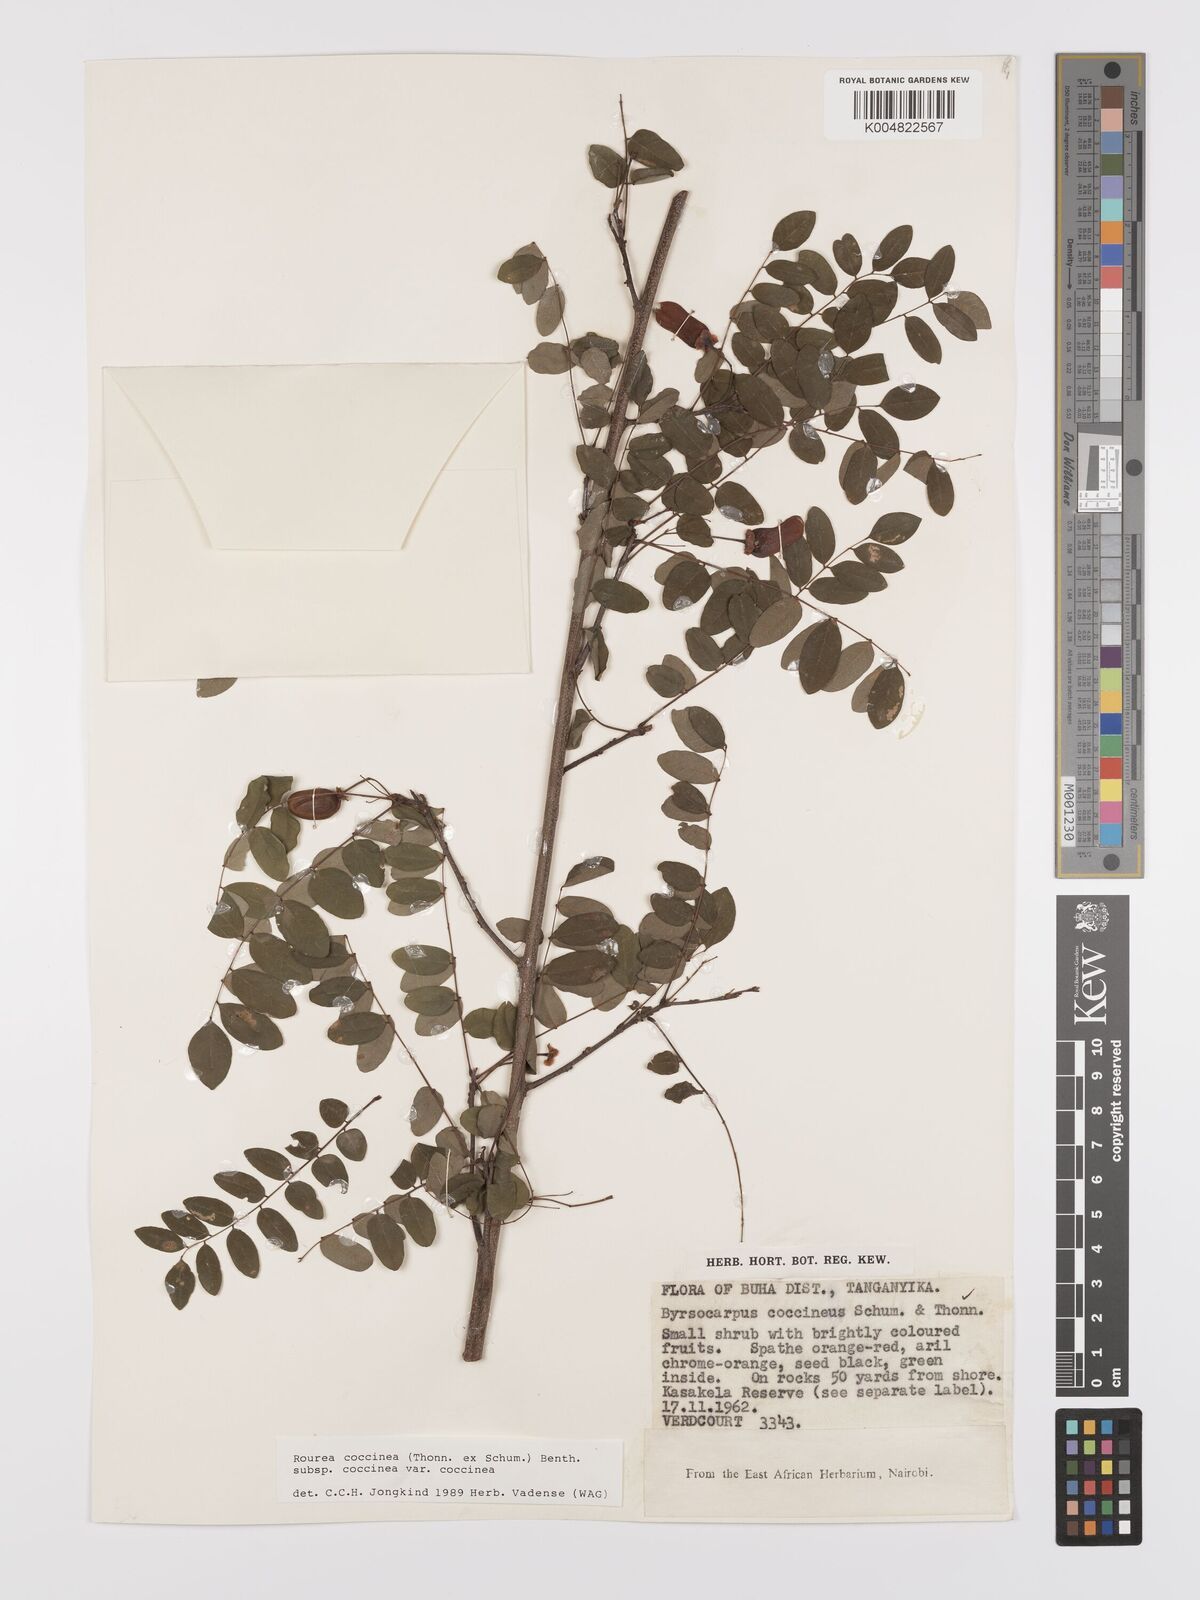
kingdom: Plantae
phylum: Tracheophyta
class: Magnoliopsida
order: Oxalidales
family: Connaraceae
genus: Rourea
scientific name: Rourea coccinea
